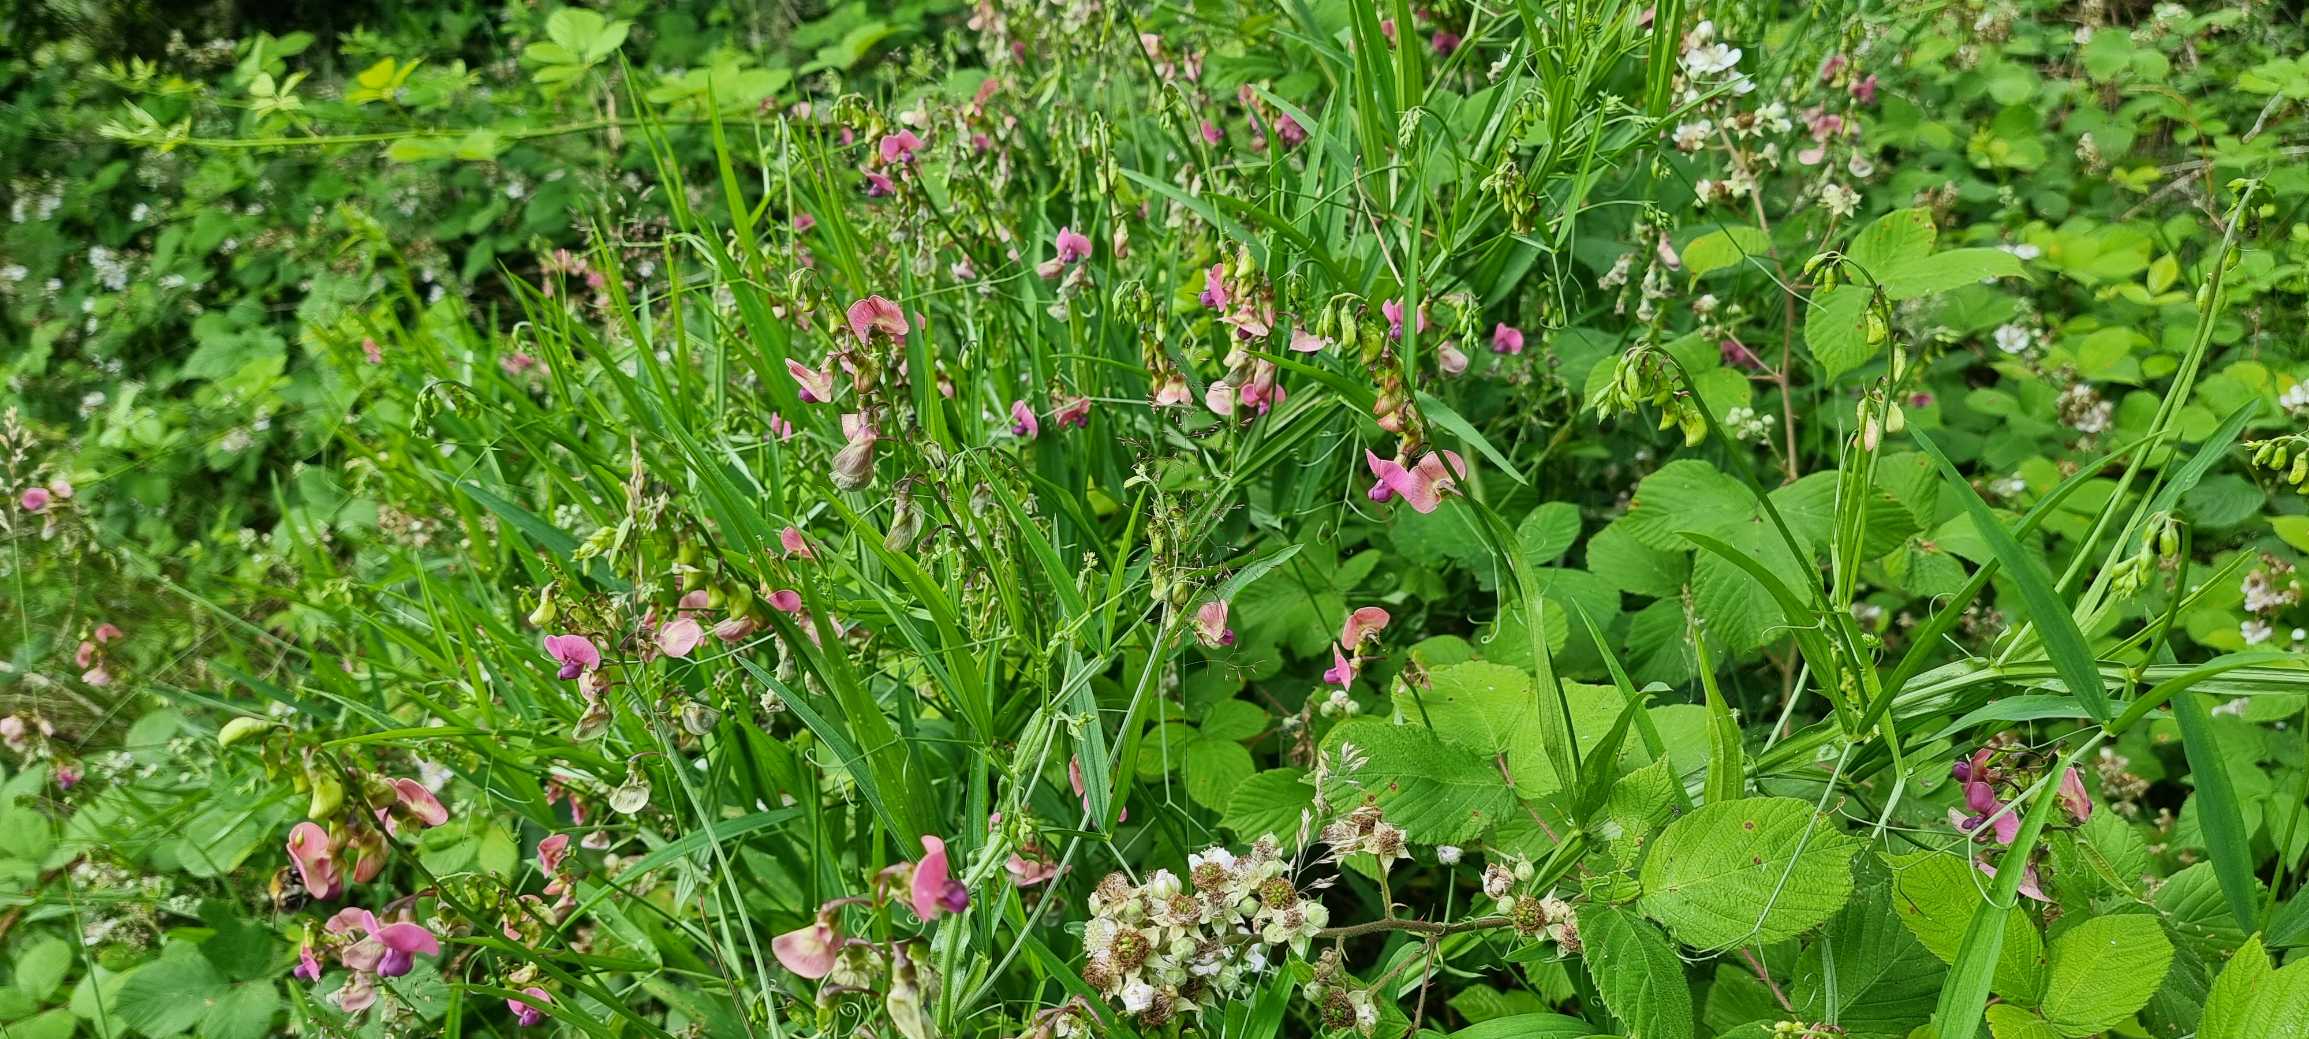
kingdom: Plantae
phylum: Tracheophyta
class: Magnoliopsida
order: Fabales
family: Fabaceae
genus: Lathyrus
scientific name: Lathyrus sylvestris
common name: Skov-fladbælg
